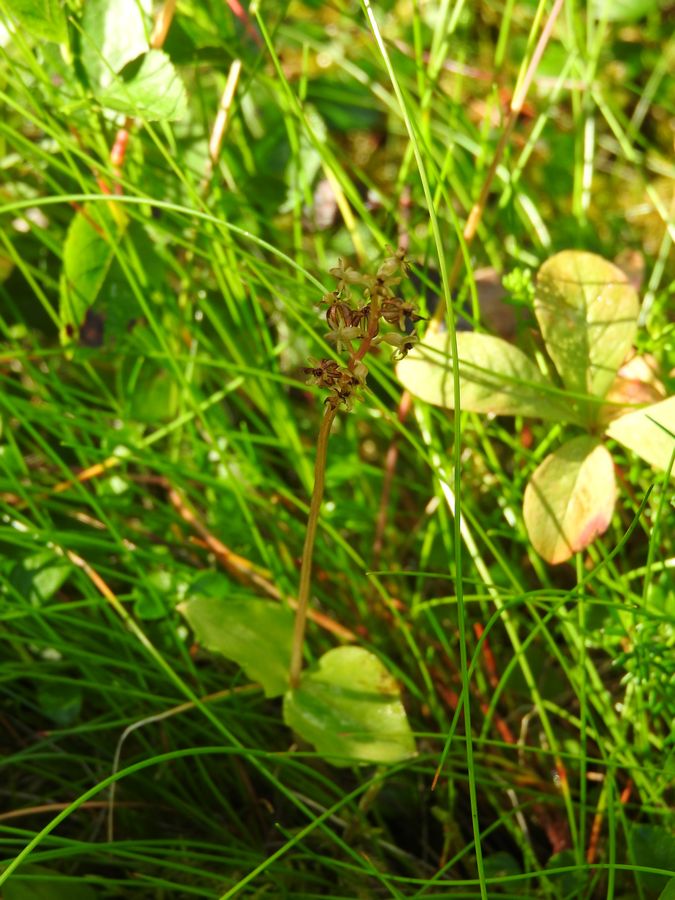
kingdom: Plantae
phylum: Tracheophyta
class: Liliopsida
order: Asparagales
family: Orchidaceae
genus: Neottia
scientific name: Neottia cordata
